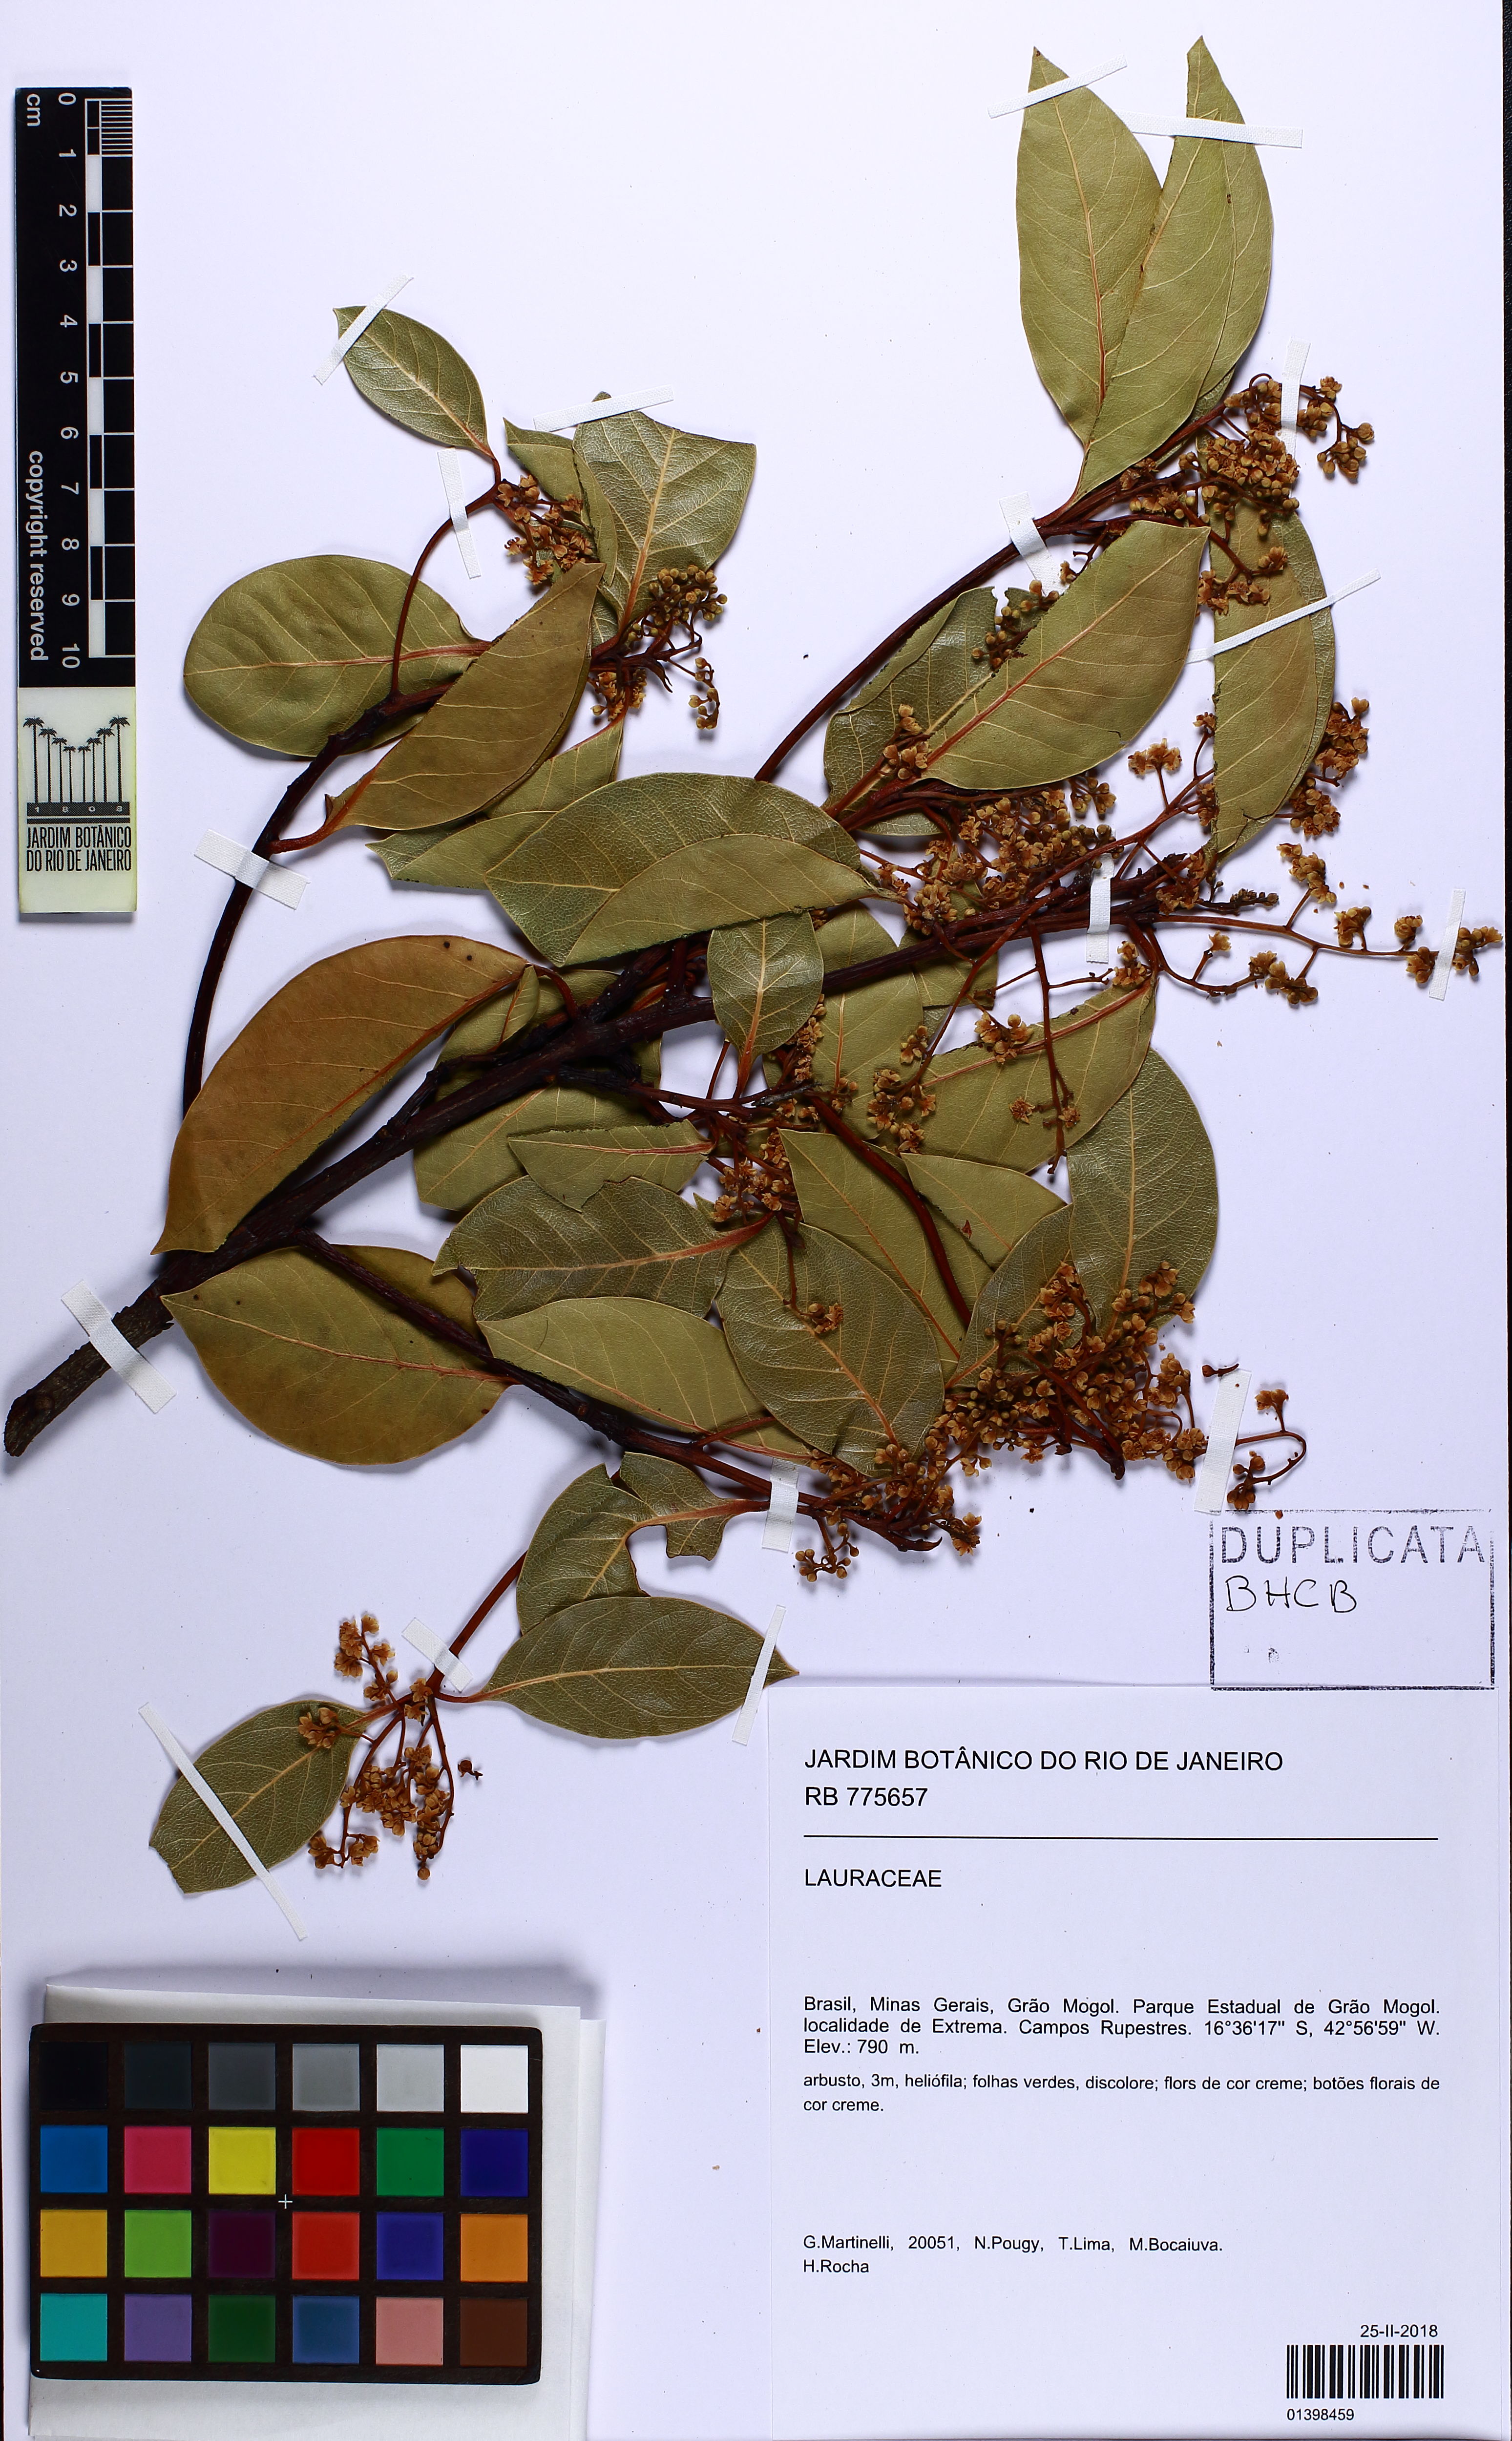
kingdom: Plantae
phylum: Tracheophyta
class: Magnoliopsida
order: Laurales
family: Lauraceae
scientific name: Lauraceae
